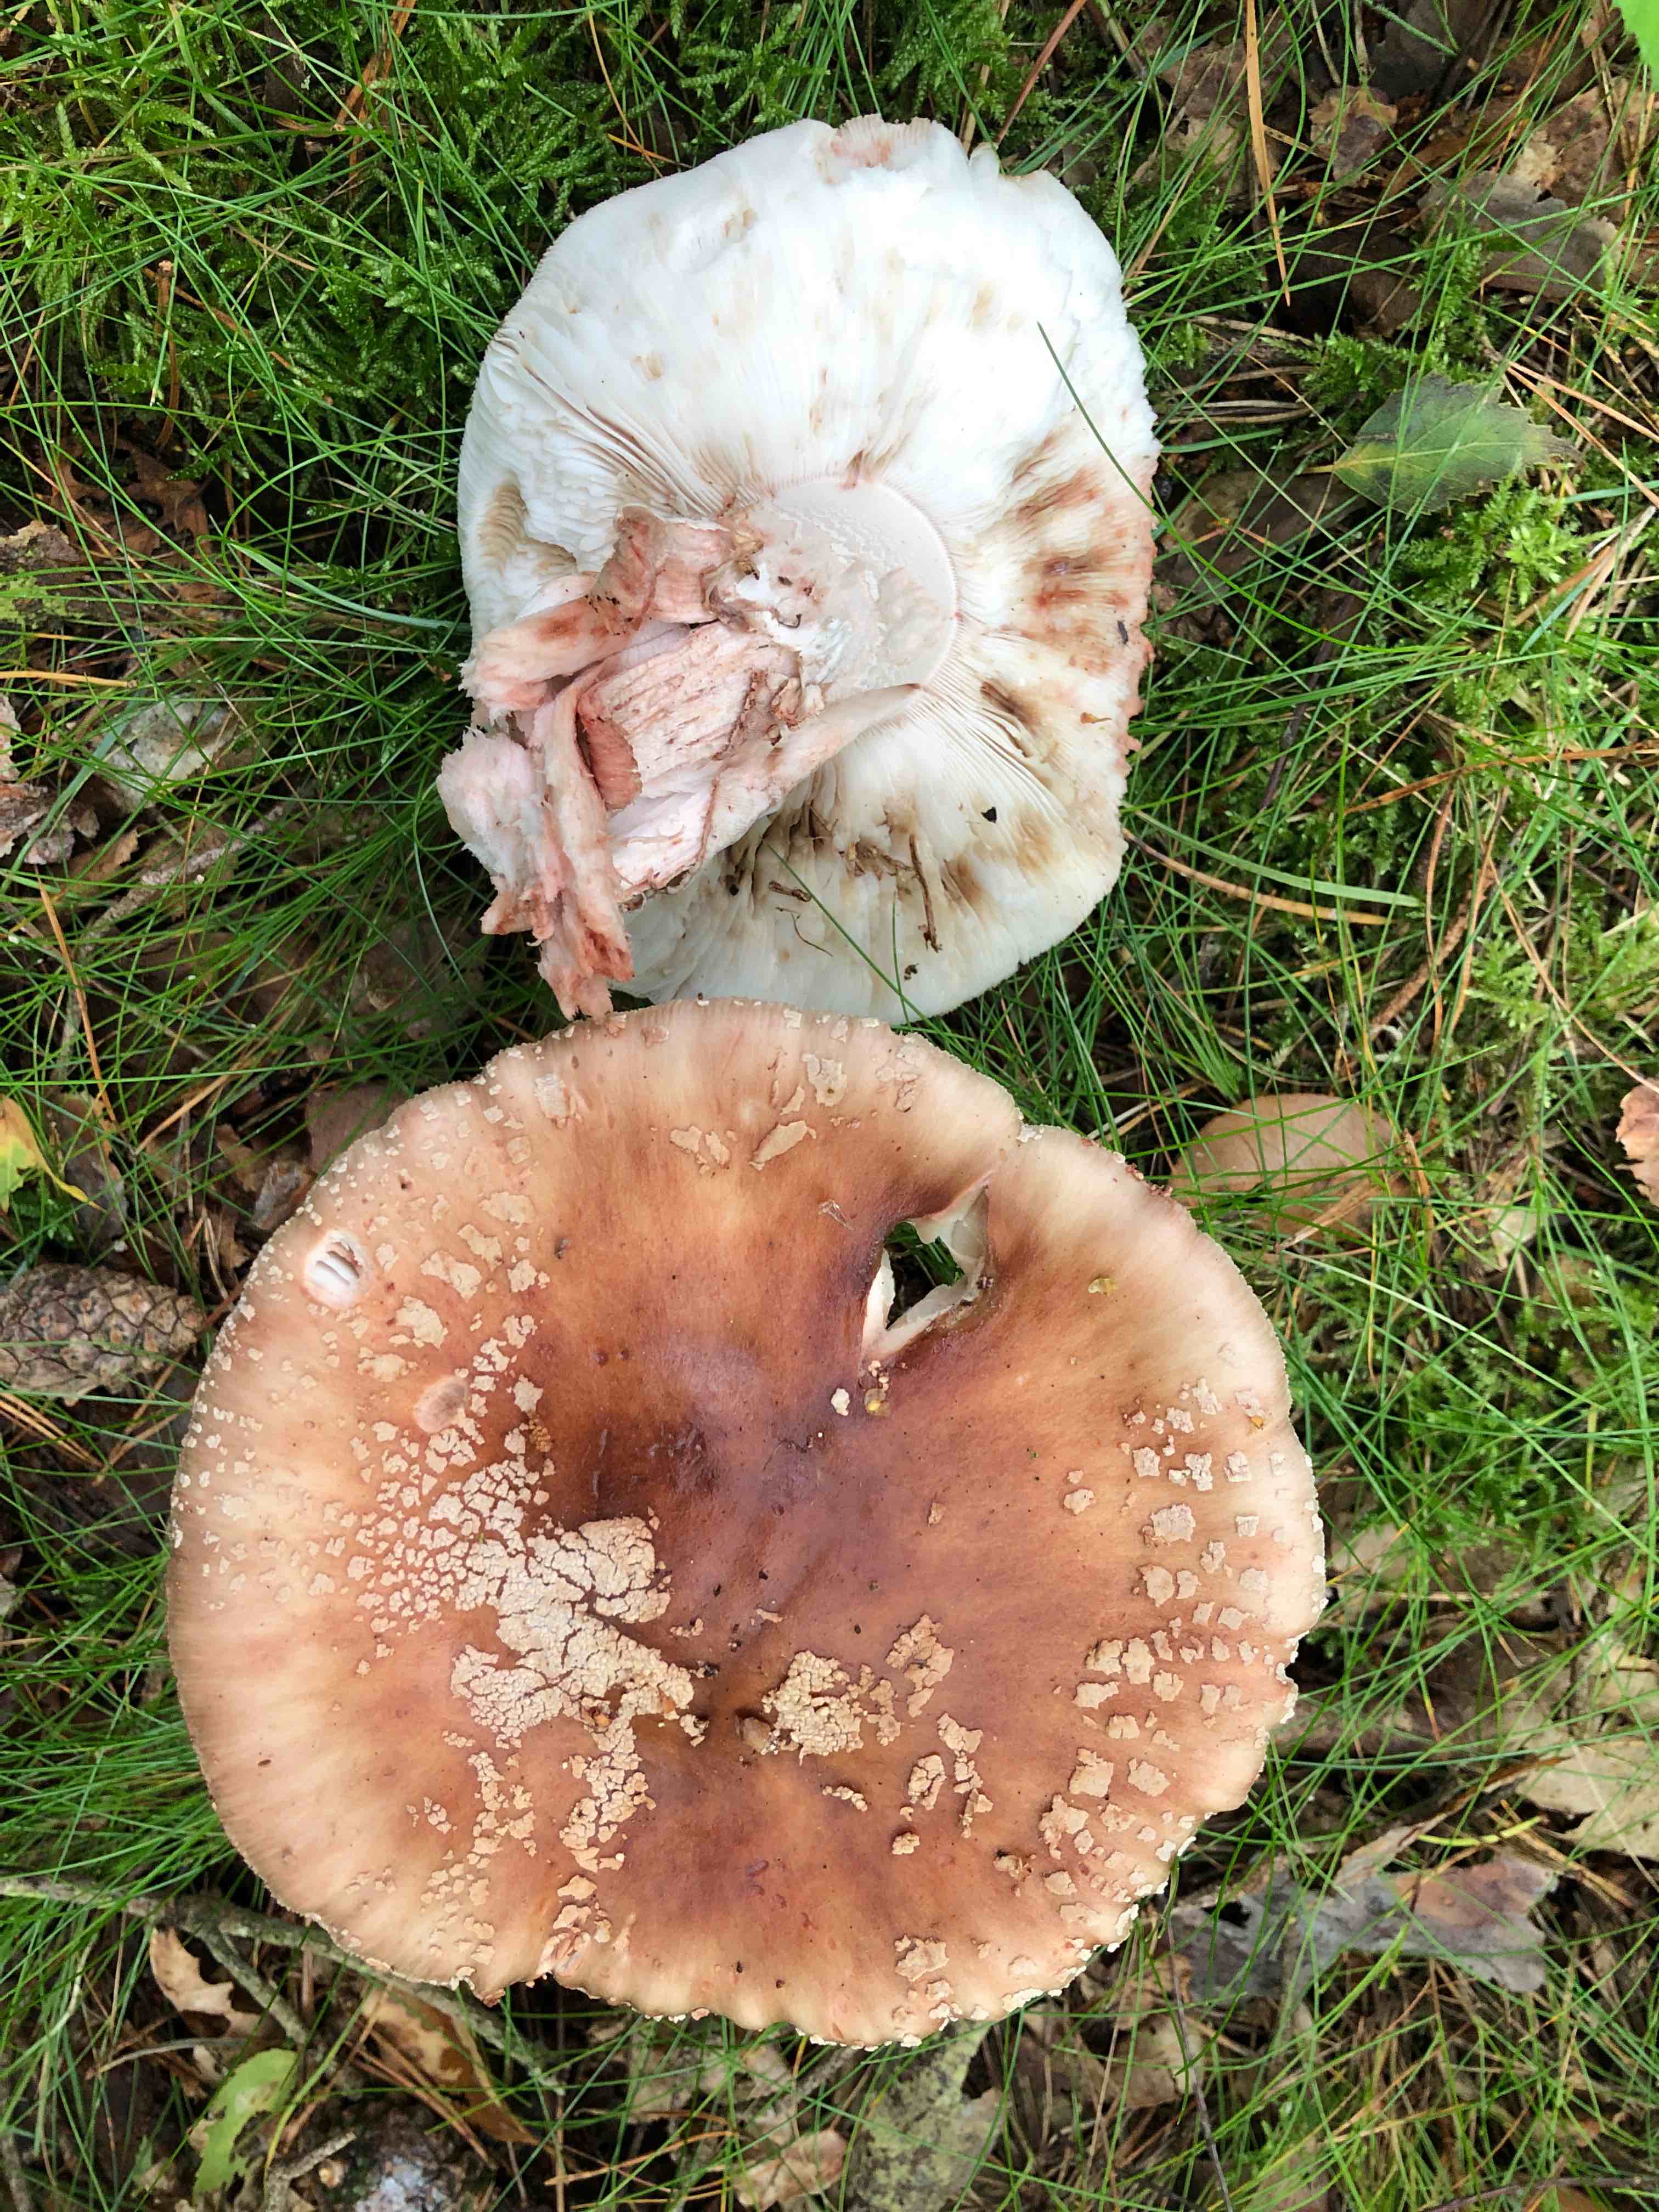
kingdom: Fungi
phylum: Basidiomycota
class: Agaricomycetes
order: Agaricales
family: Amanitaceae
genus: Amanita
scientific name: Amanita rubescens
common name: rødmende fluesvamp
